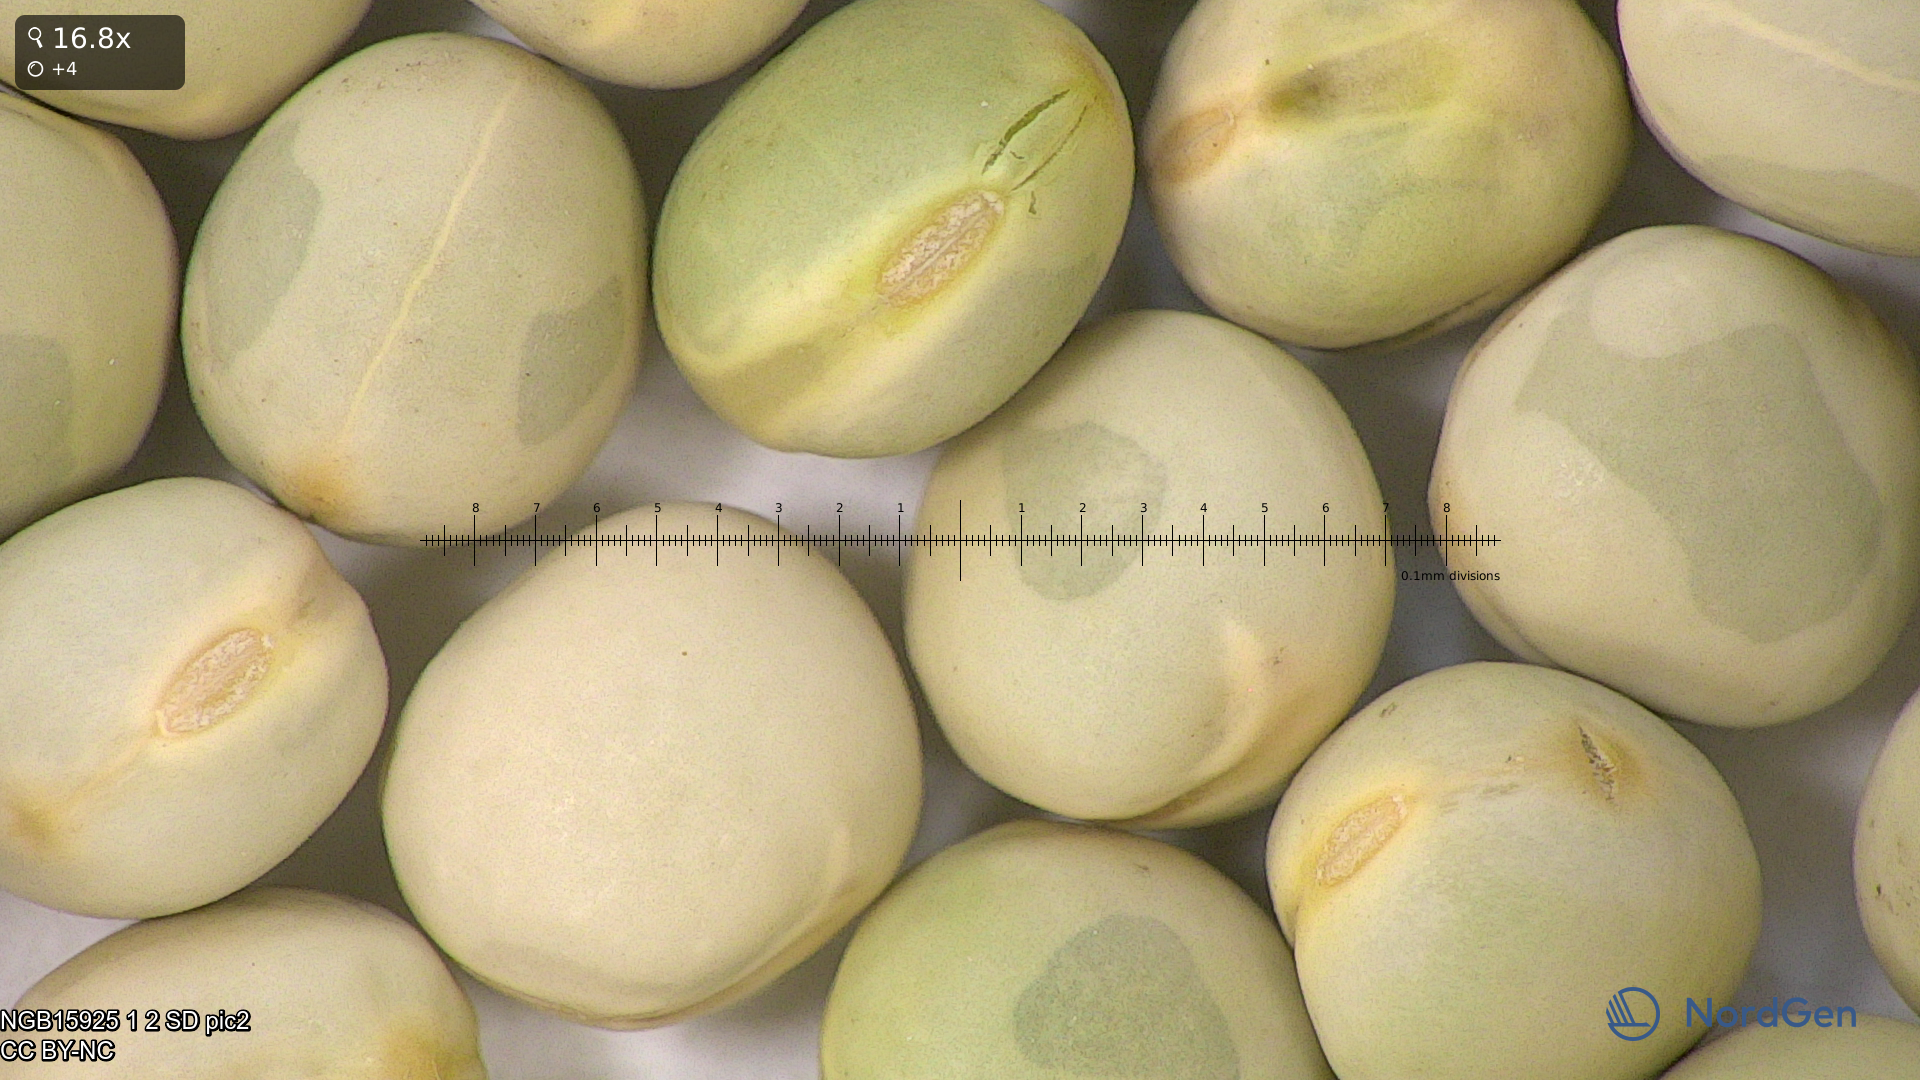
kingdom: Plantae
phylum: Tracheophyta
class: Magnoliopsida
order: Fabales
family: Fabaceae
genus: Lathyrus
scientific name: Lathyrus oleraceus
